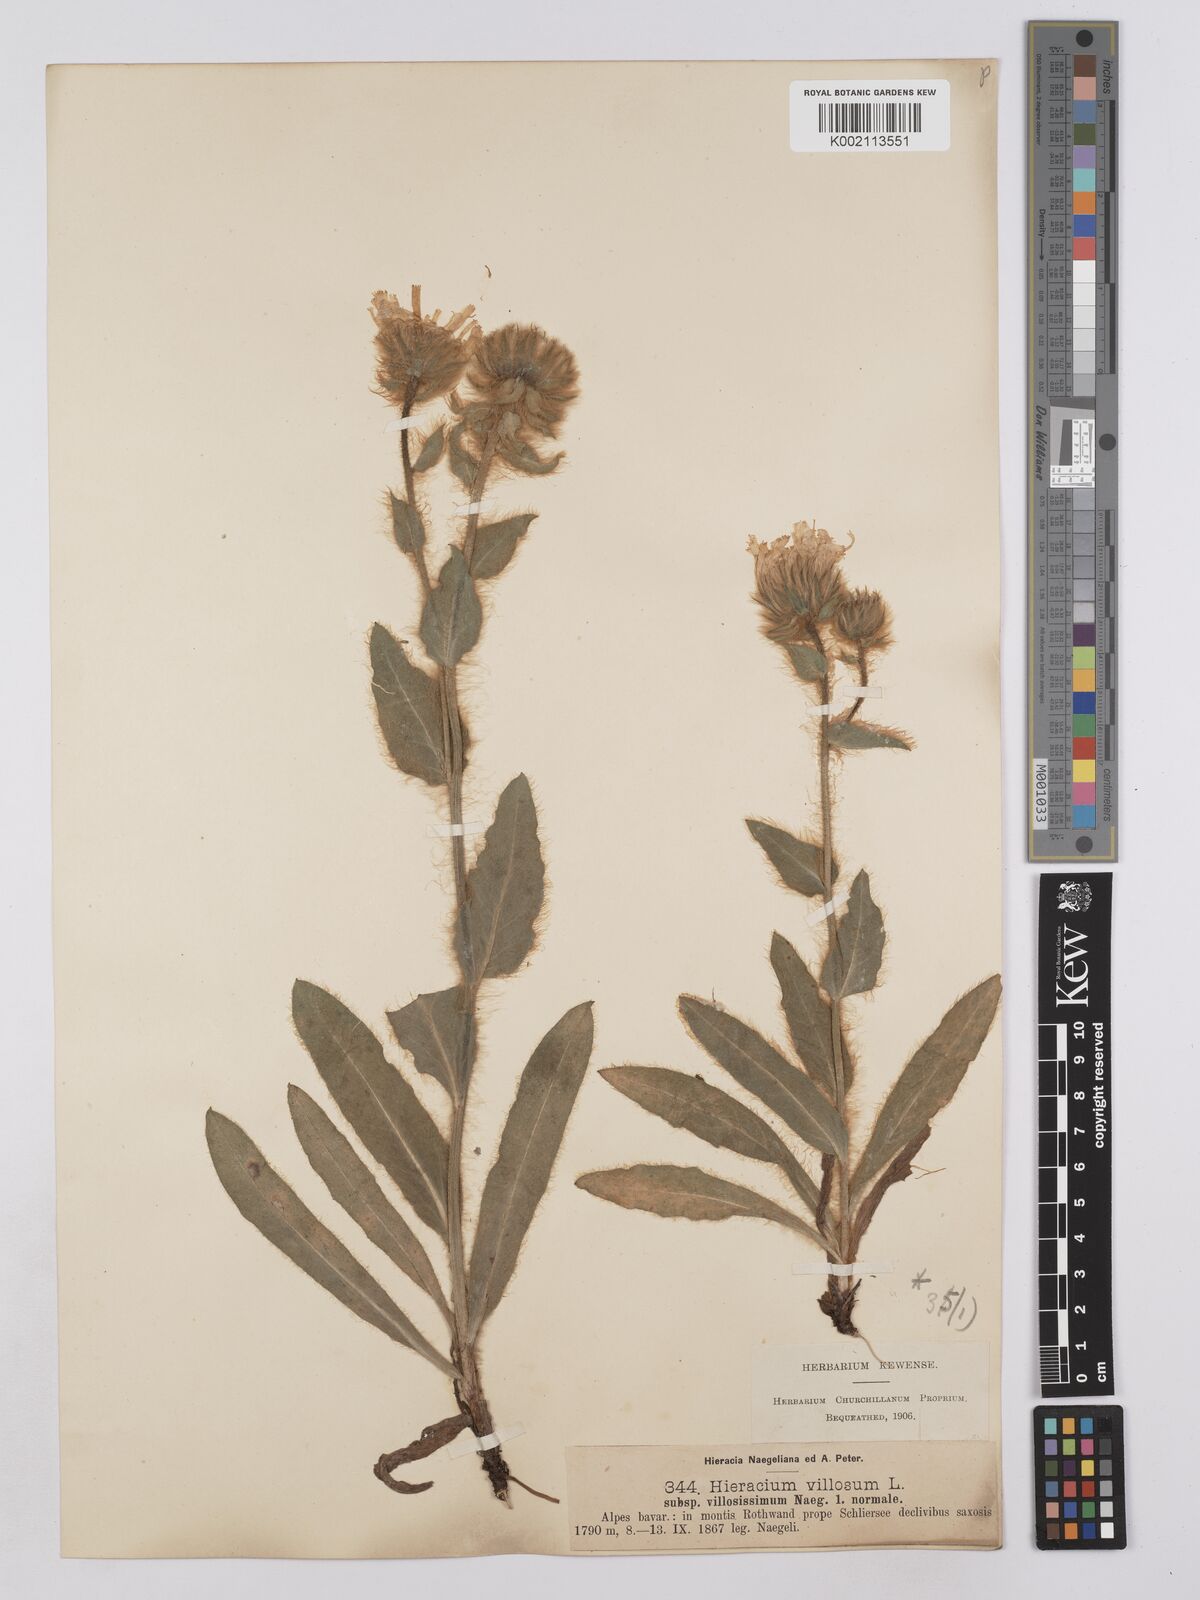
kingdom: Plantae
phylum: Tracheophyta
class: Magnoliopsida
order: Asterales
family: Asteraceae
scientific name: Asteraceae
